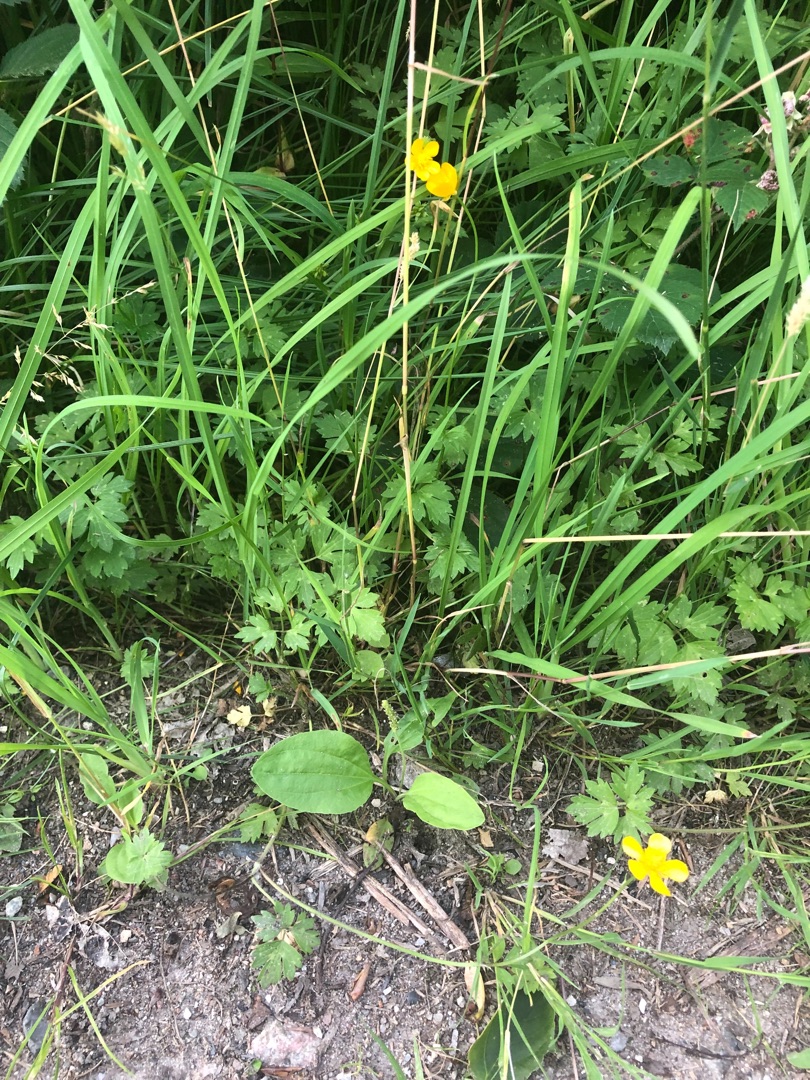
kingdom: Plantae
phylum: Tracheophyta
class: Magnoliopsida
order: Ranunculales
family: Ranunculaceae
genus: Ranunculus
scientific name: Ranunculus repens
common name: Lav ranunkel
